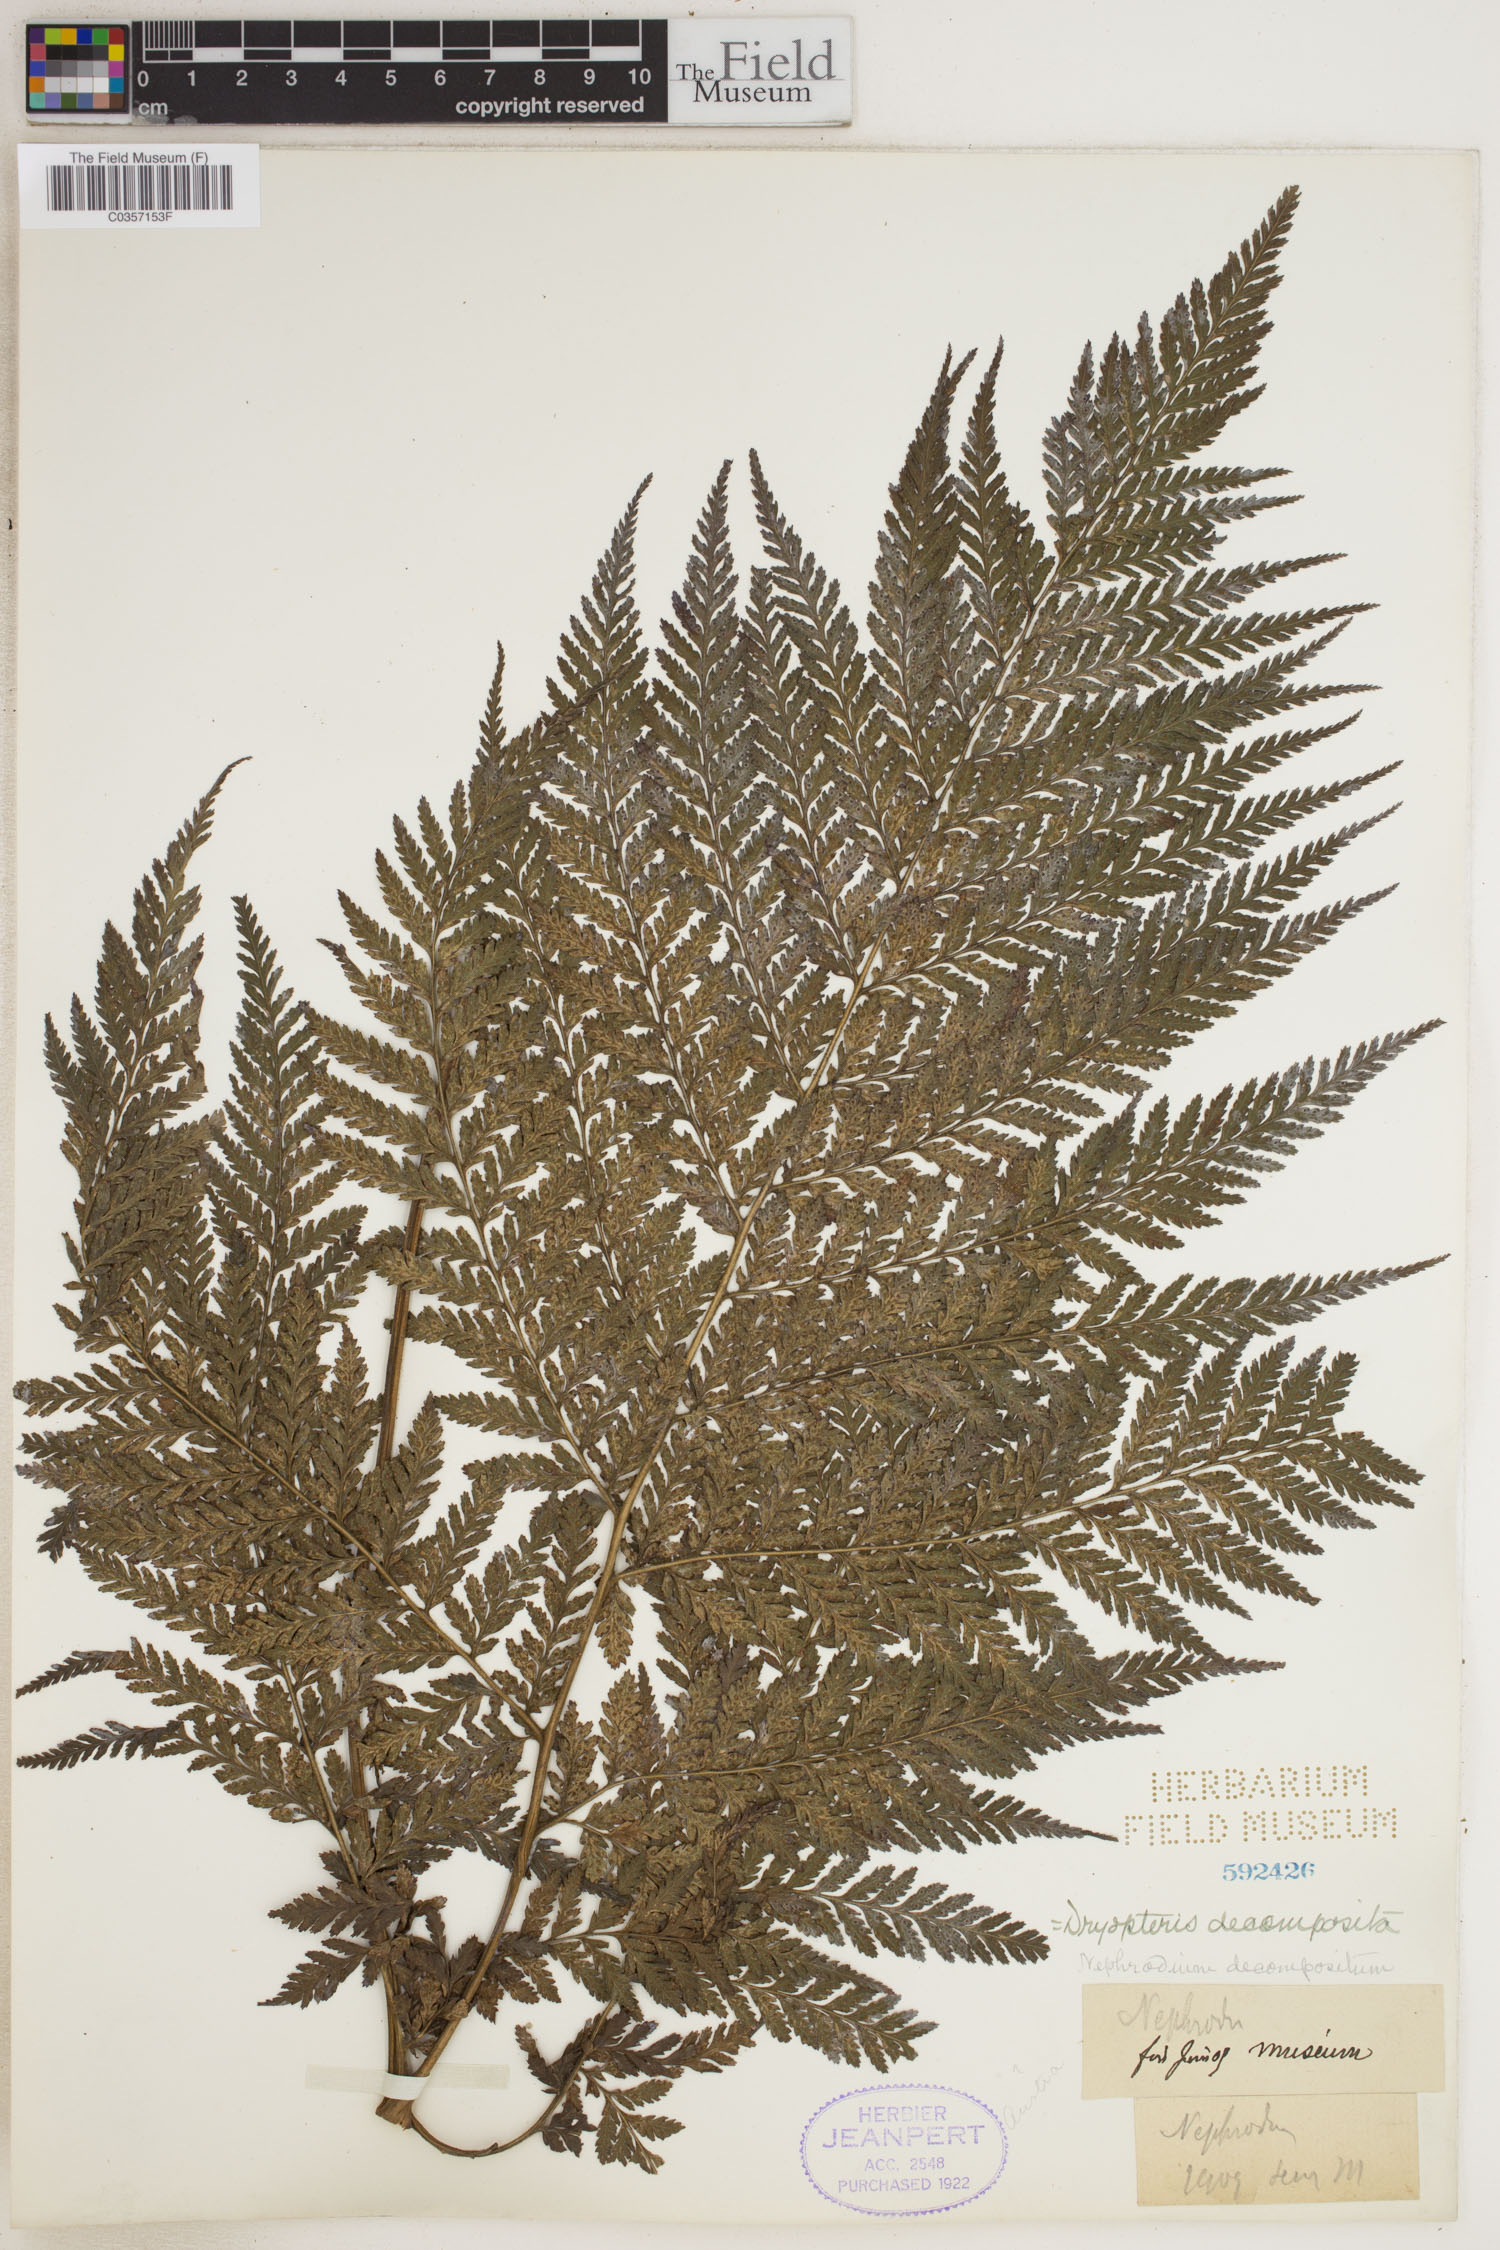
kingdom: Plantae
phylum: Tracheophyta
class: Polypodiopsida
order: Polypodiales
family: Dryopteridaceae
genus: Lastreopsis
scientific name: Lastreopsis decomposita
